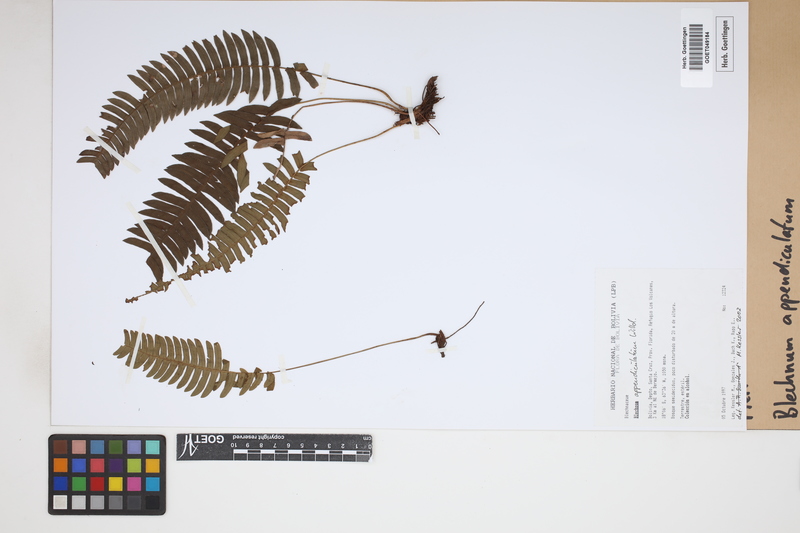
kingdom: Plantae
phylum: Tracheophyta
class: Polypodiopsida
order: Polypodiales
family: Blechnaceae
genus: Blechnum
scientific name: Blechnum appendiculatum
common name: Palm fern
